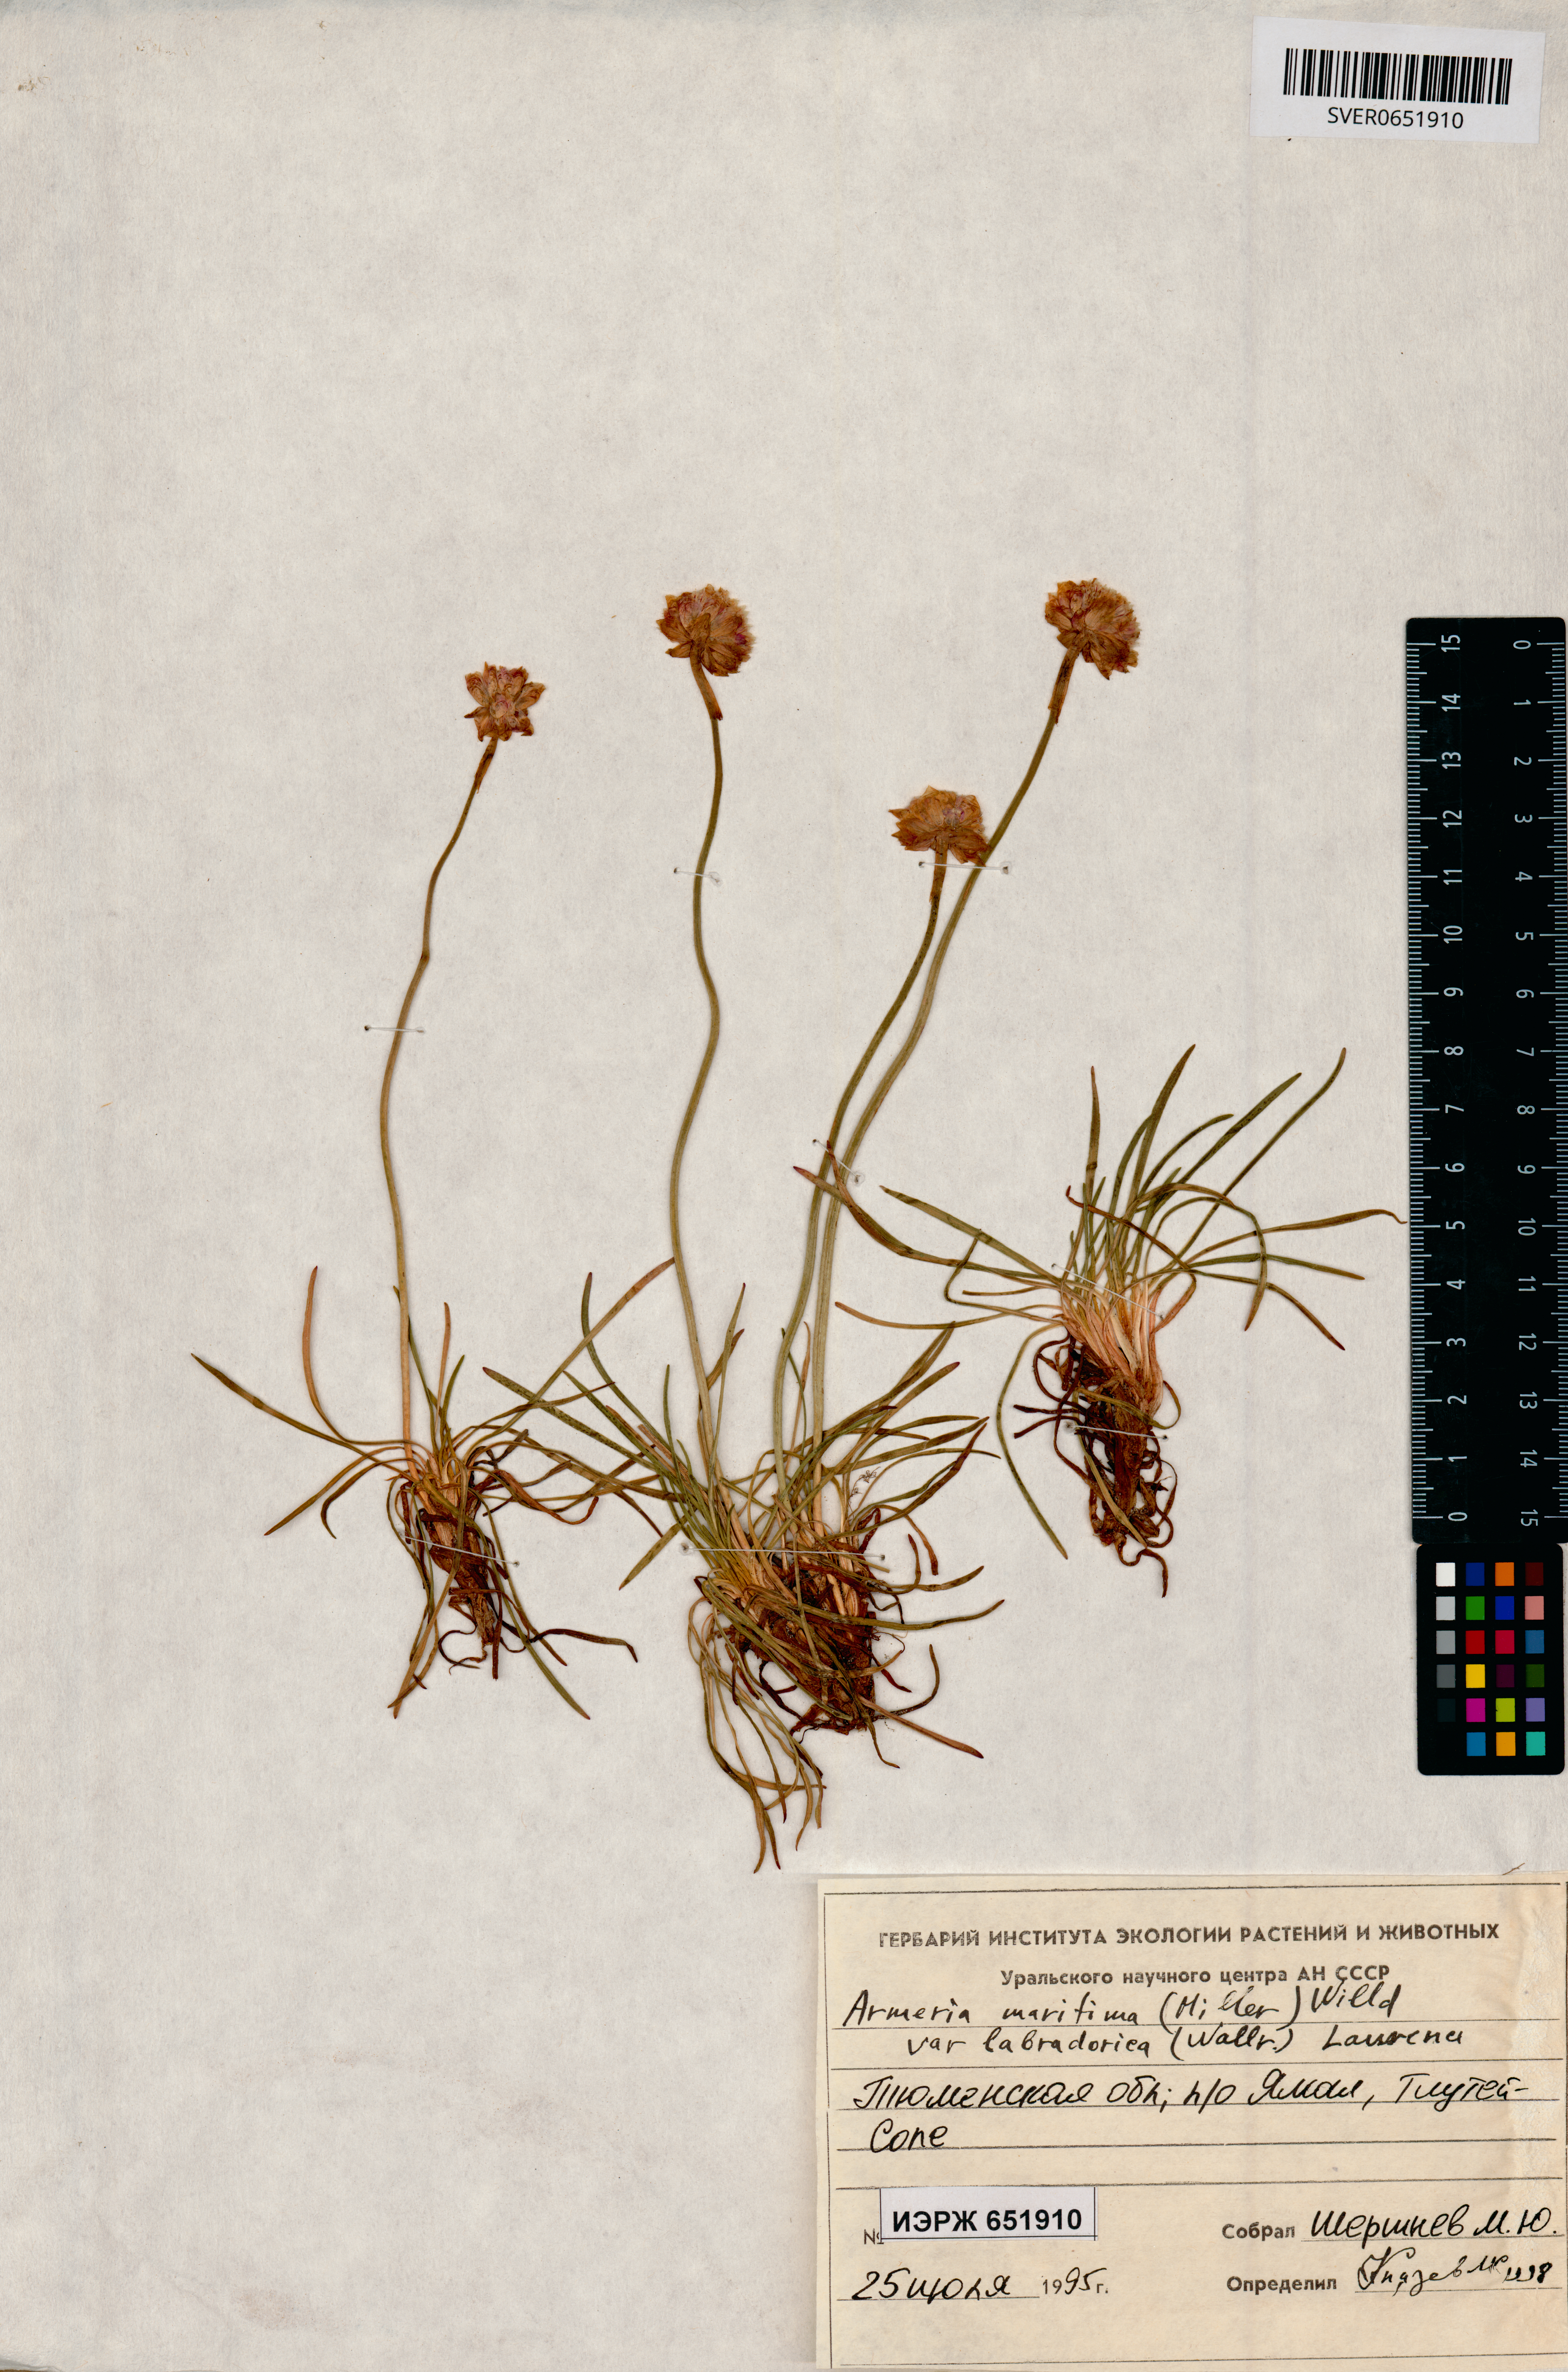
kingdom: Plantae
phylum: Tracheophyta
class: Magnoliopsida
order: Caryophyllales
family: Plumbaginaceae
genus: Armeria
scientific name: Armeria maritima
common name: Thrift
